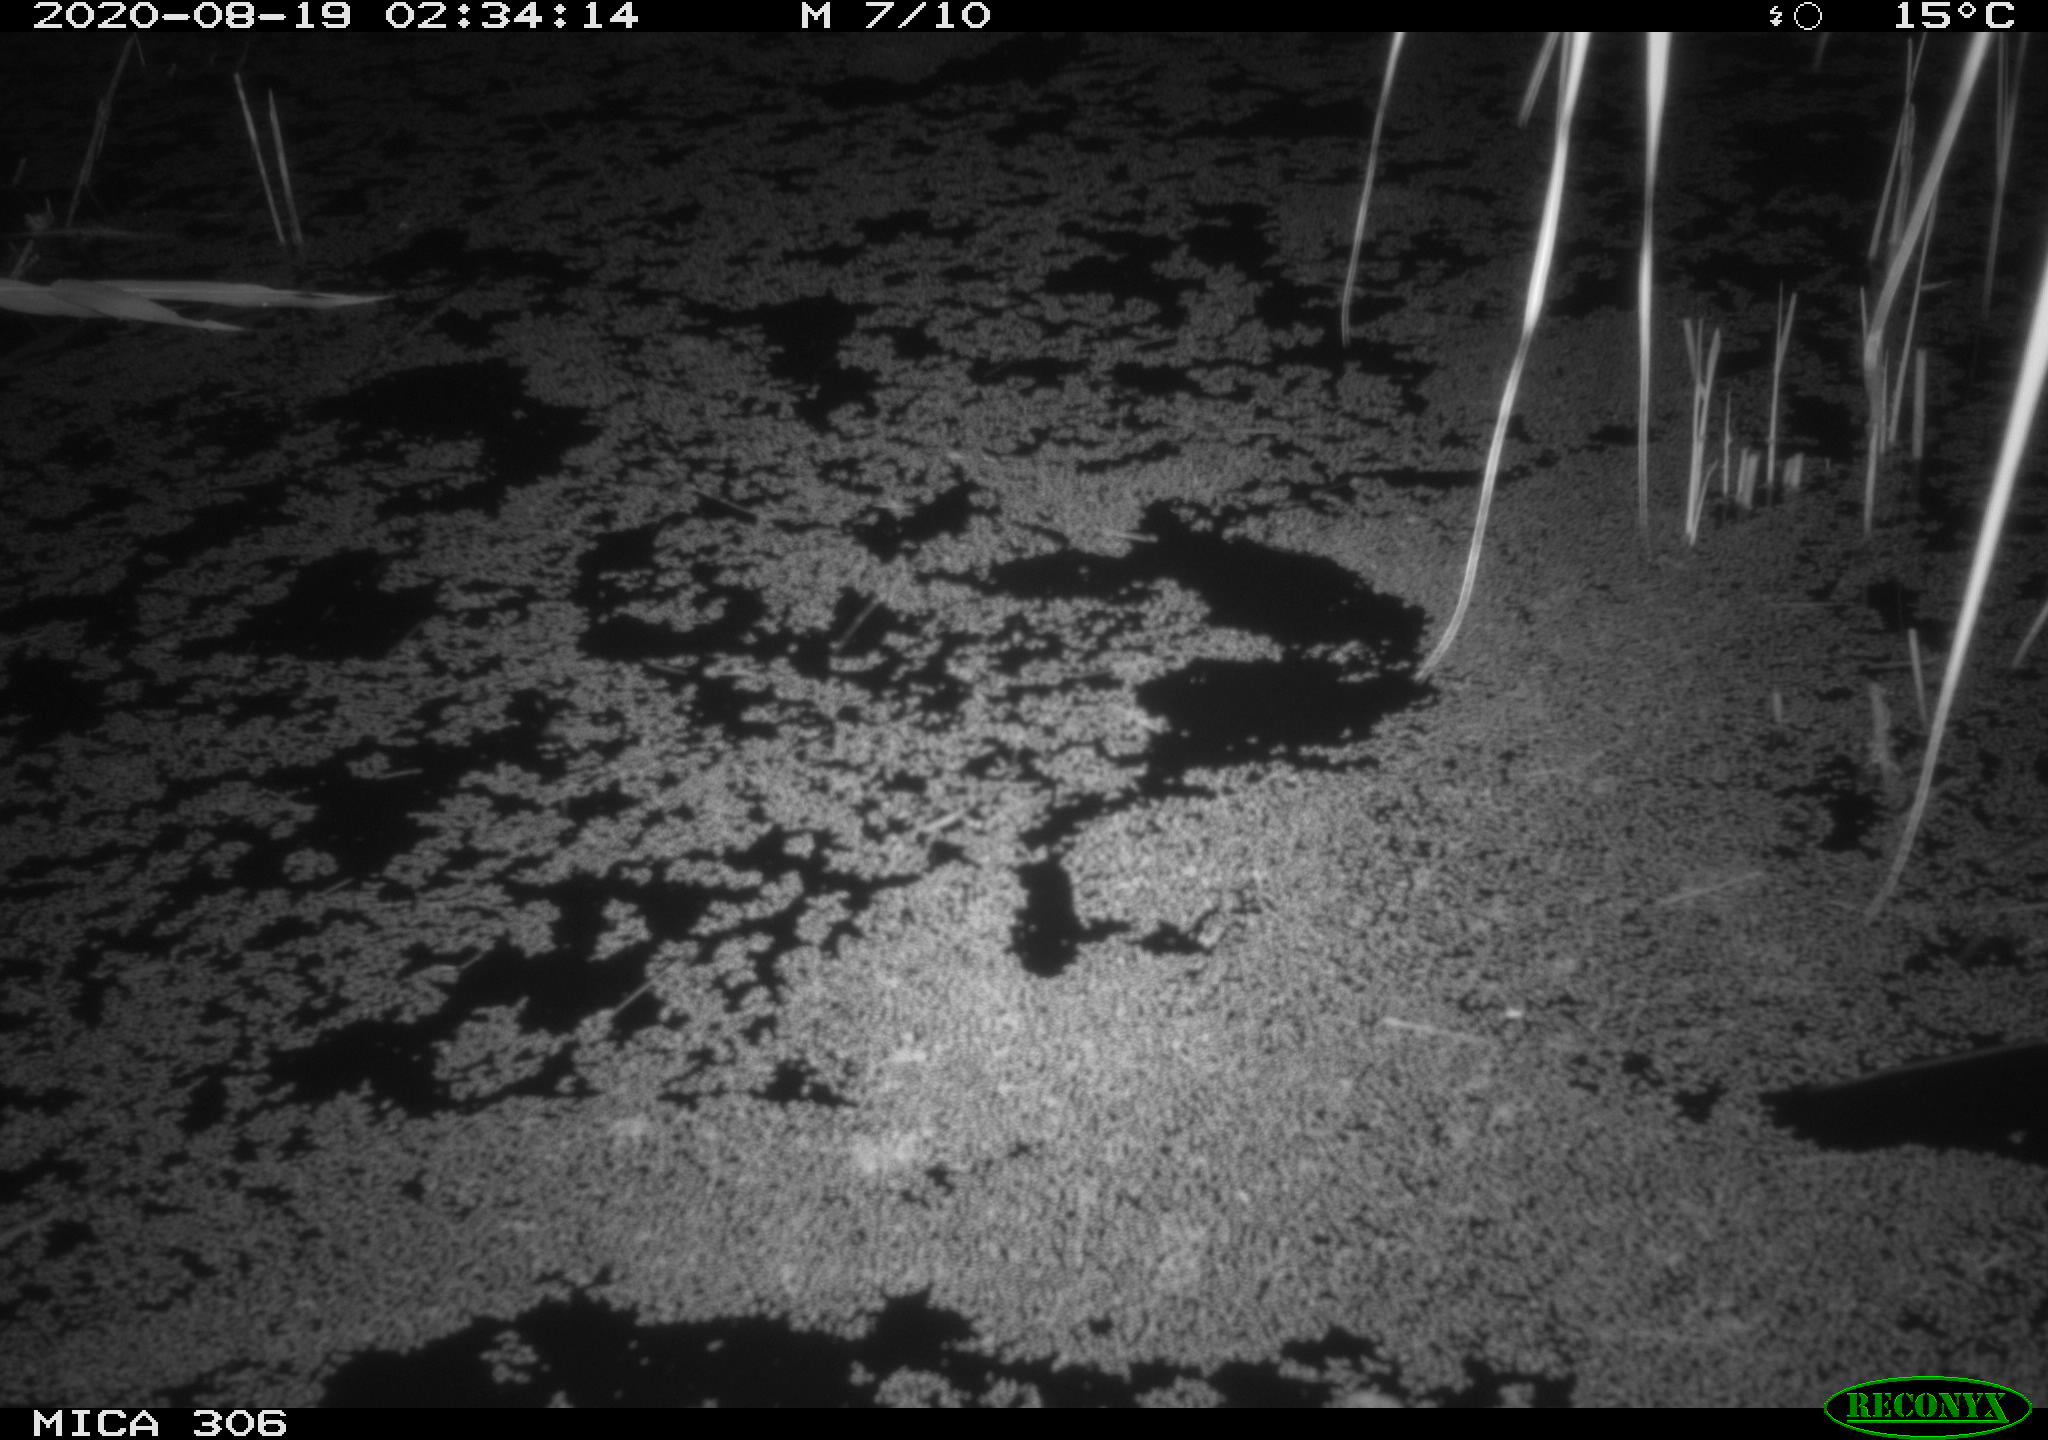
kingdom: Animalia
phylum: Chordata
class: Mammalia
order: Rodentia
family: Muridae
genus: Rattus
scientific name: Rattus norvegicus
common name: Brown rat
